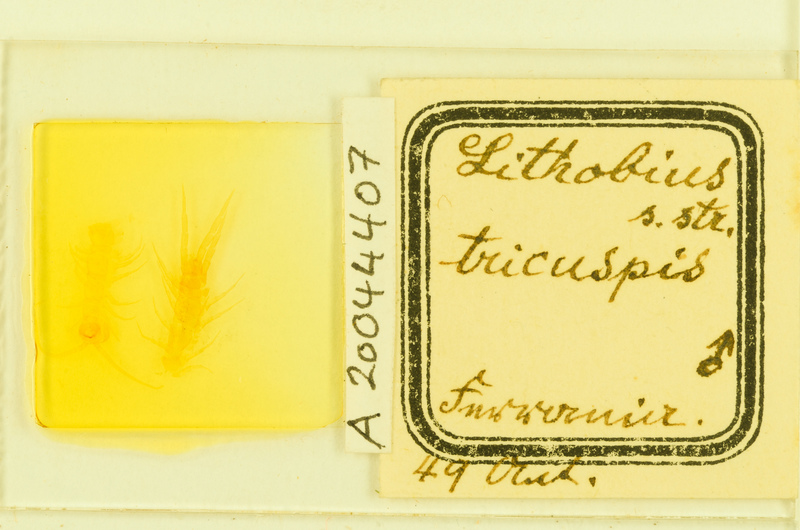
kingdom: Animalia
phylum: Arthropoda
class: Chilopoda
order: Lithobiomorpha
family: Lithobiidae
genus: Lithobius
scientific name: Lithobius tricuspis
